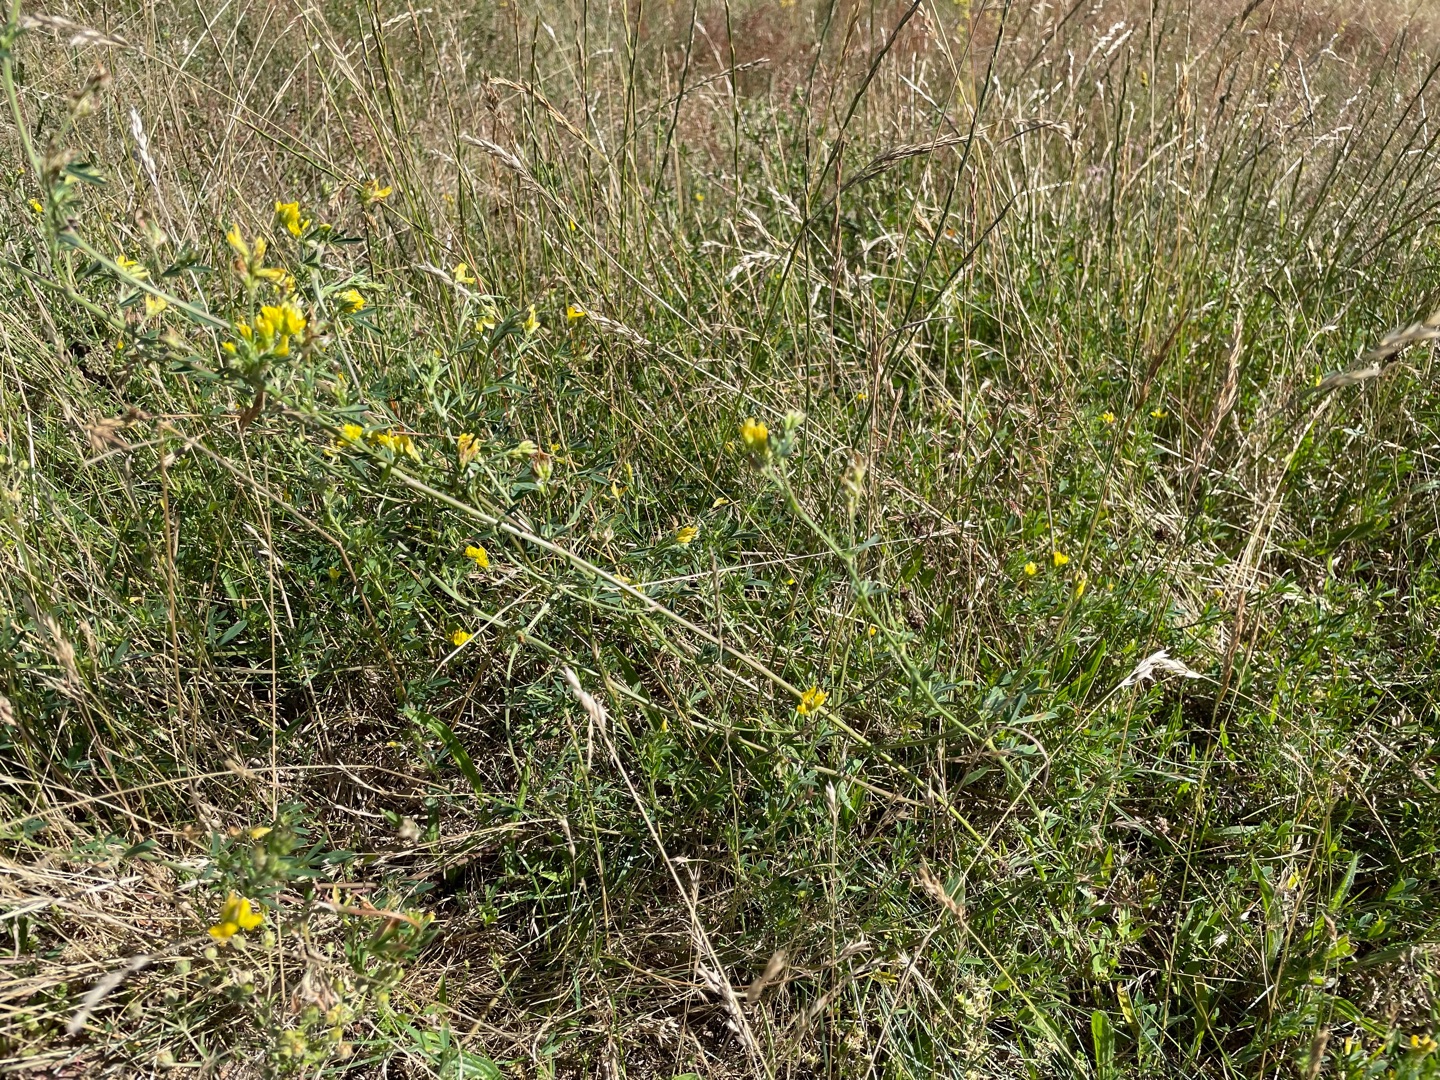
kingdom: Plantae
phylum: Tracheophyta
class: Magnoliopsida
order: Fabales
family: Fabaceae
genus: Medicago
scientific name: Medicago falcata
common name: Segl-sneglebælg
